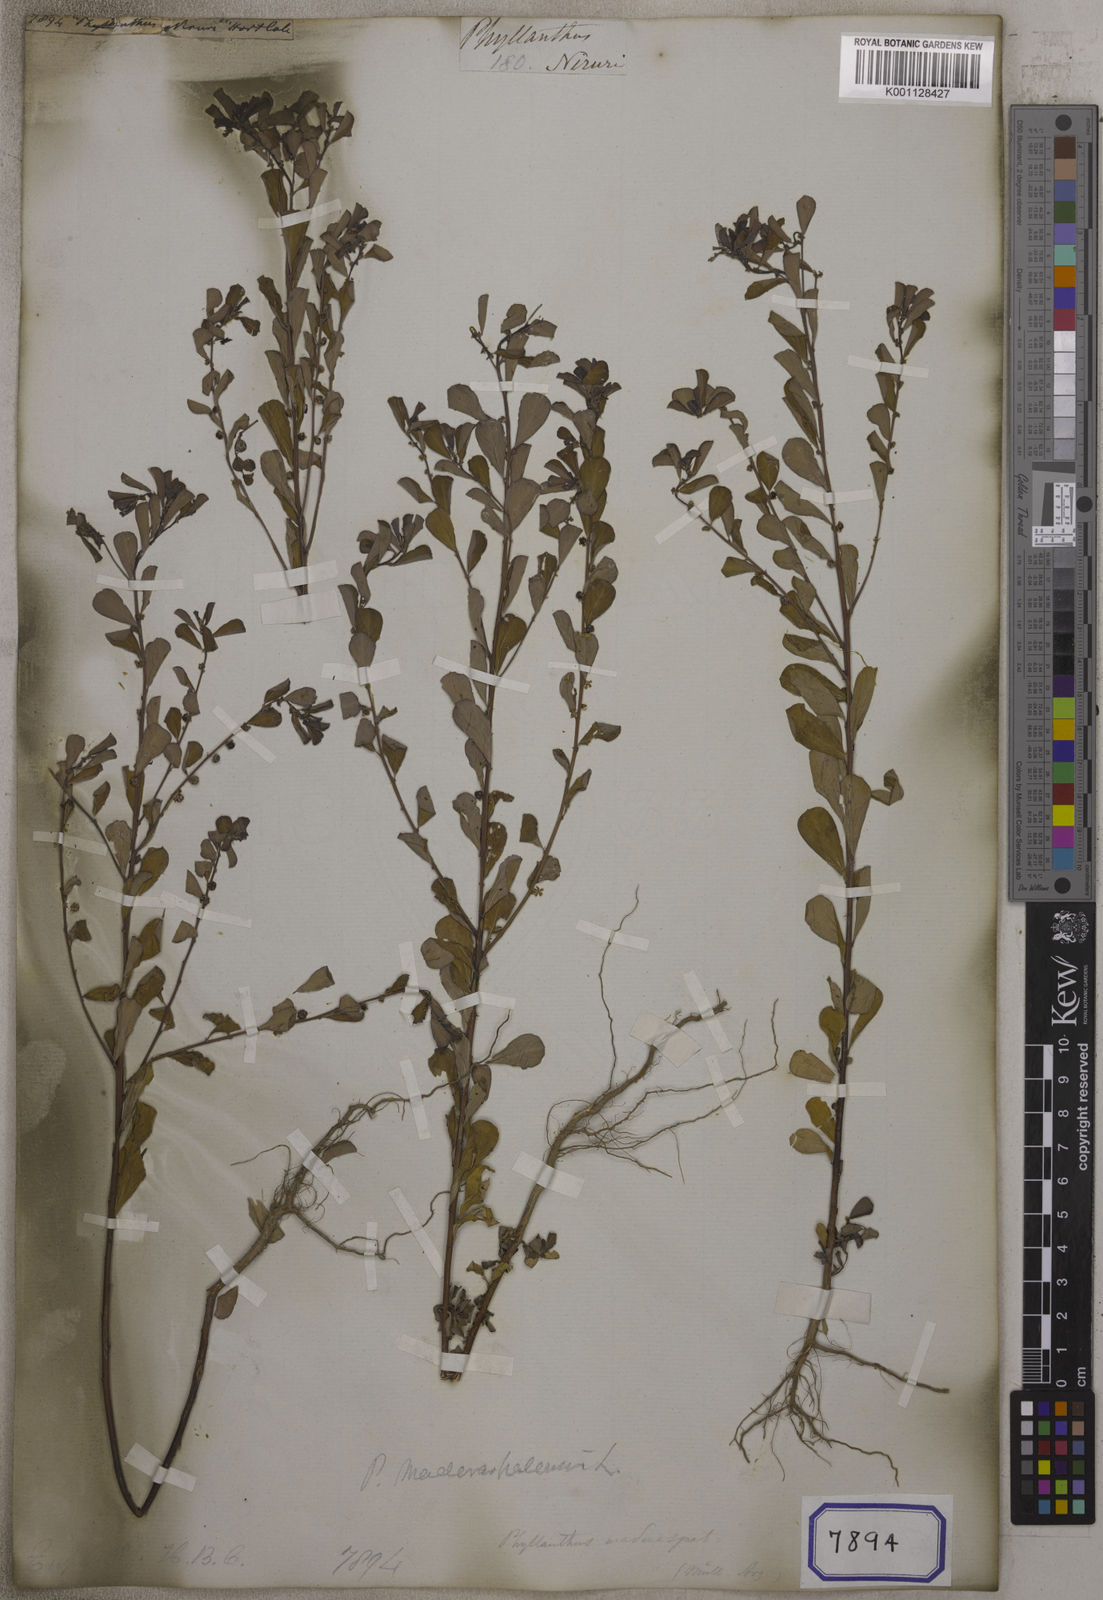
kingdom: Plantae
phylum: Tracheophyta
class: Magnoliopsida
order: Malpighiales
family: Euphorbiaceae
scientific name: Euphorbiaceae
